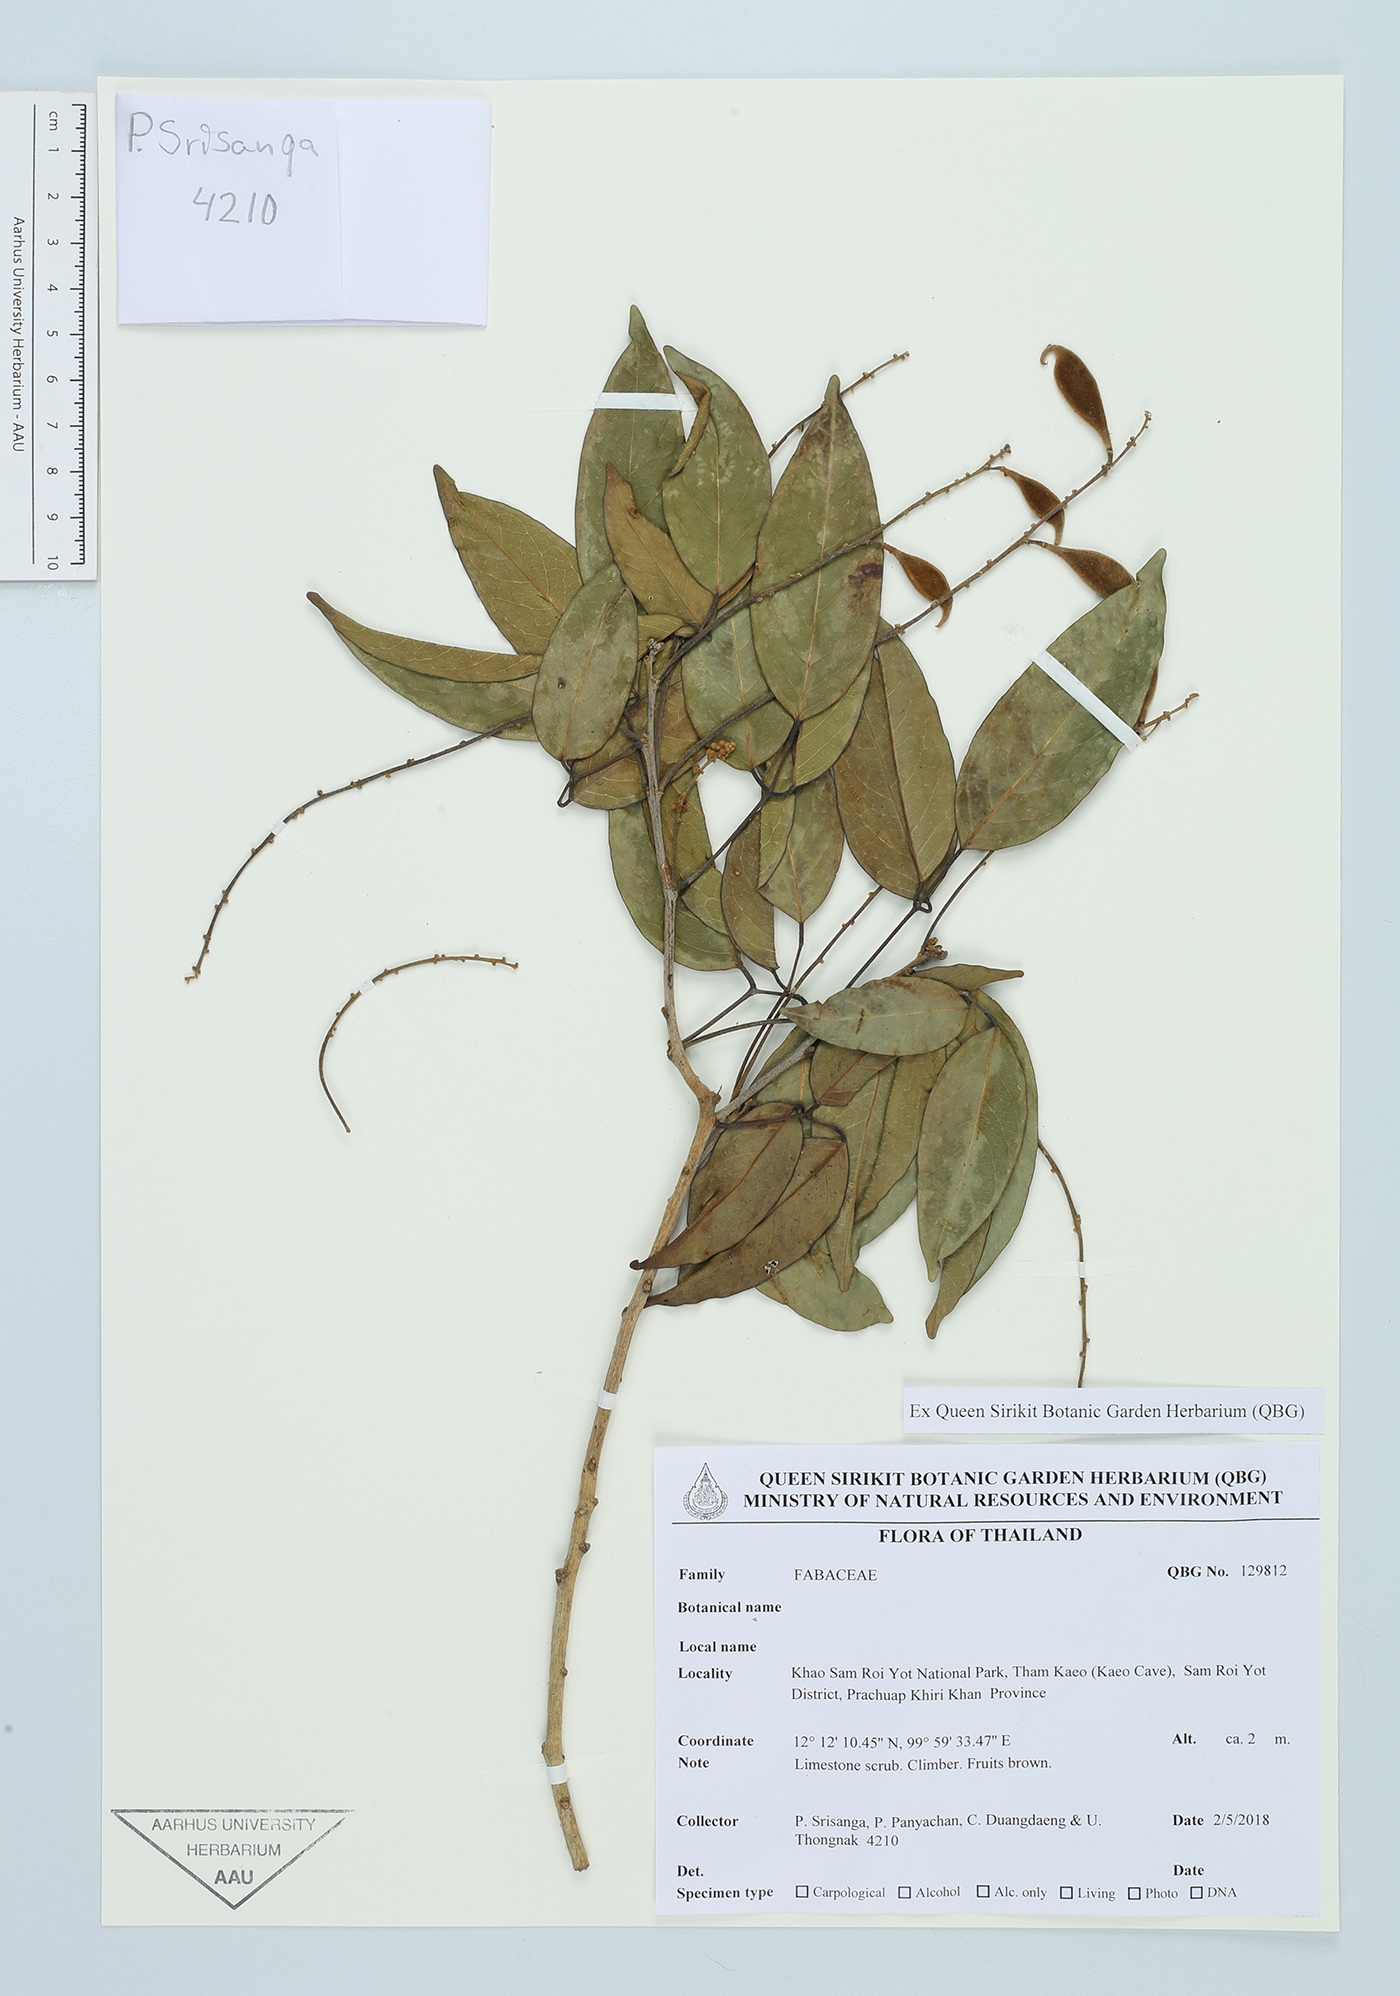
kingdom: Plantae
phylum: Tracheophyta
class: Magnoliopsida
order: Fabales
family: Fabaceae
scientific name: Fabaceae
